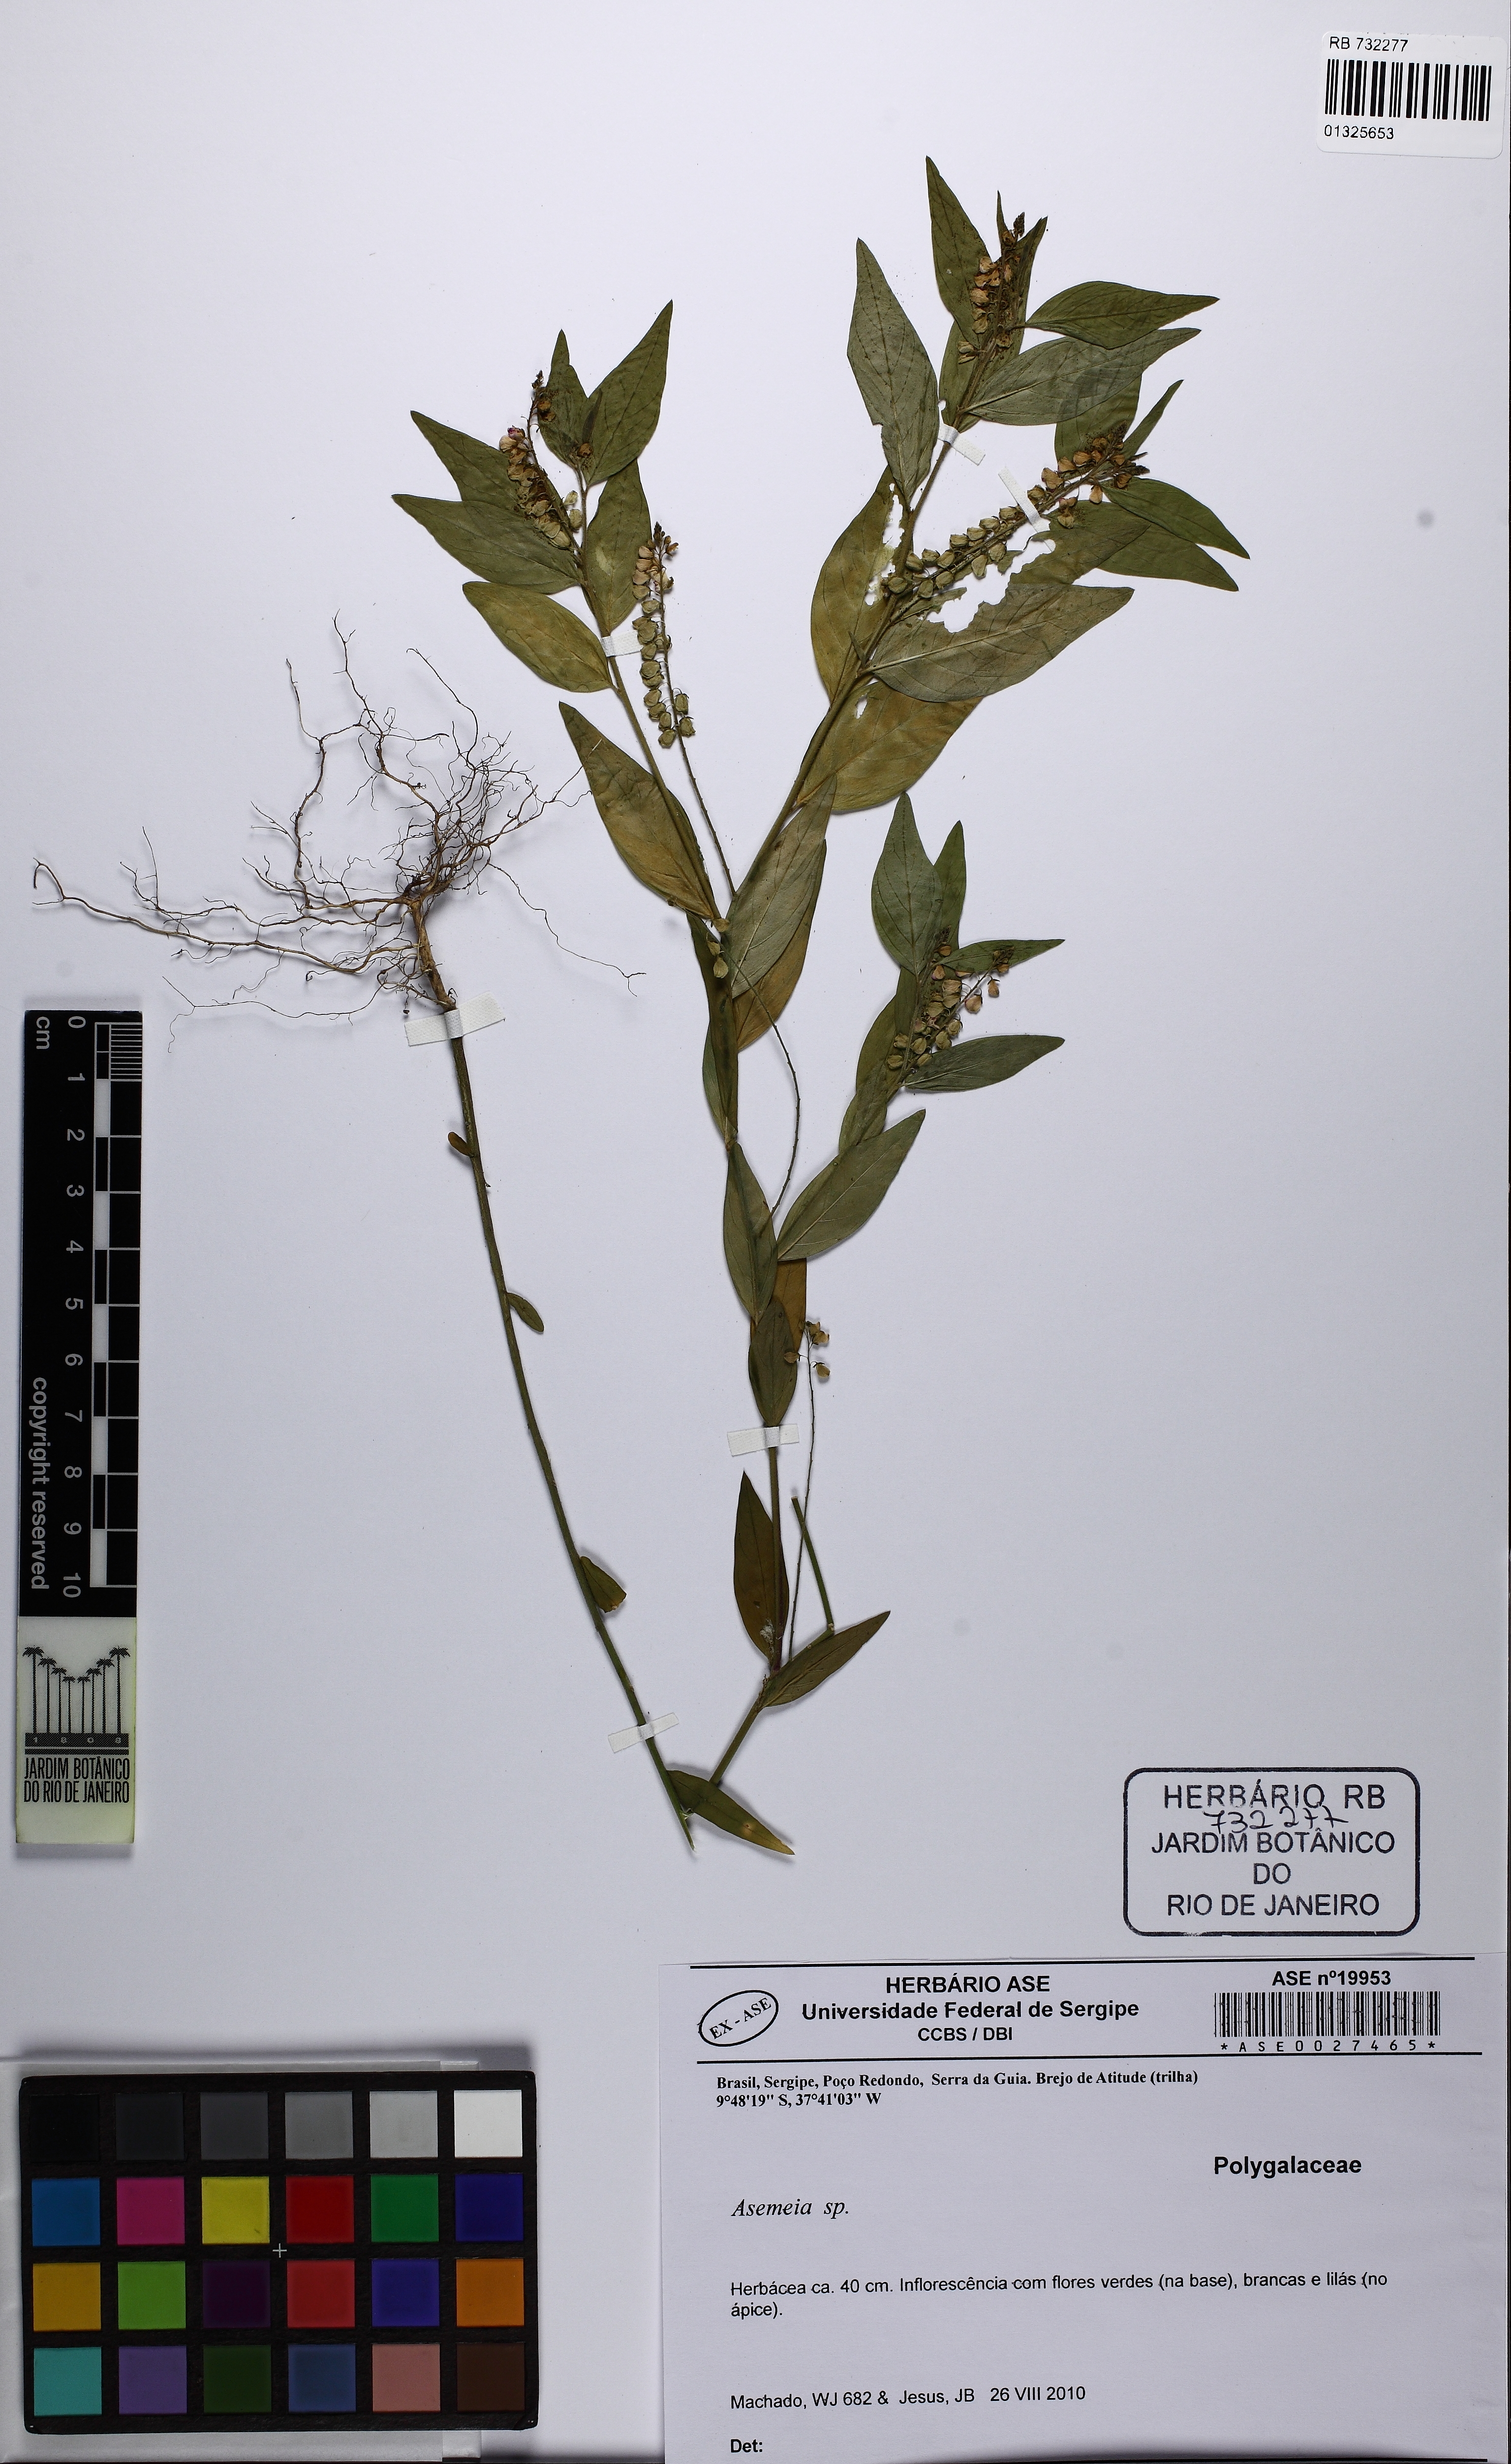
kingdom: Plantae
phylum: Tracheophyta
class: Magnoliopsida
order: Fabales
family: Polygalaceae
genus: Asemeia
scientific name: Asemeia
